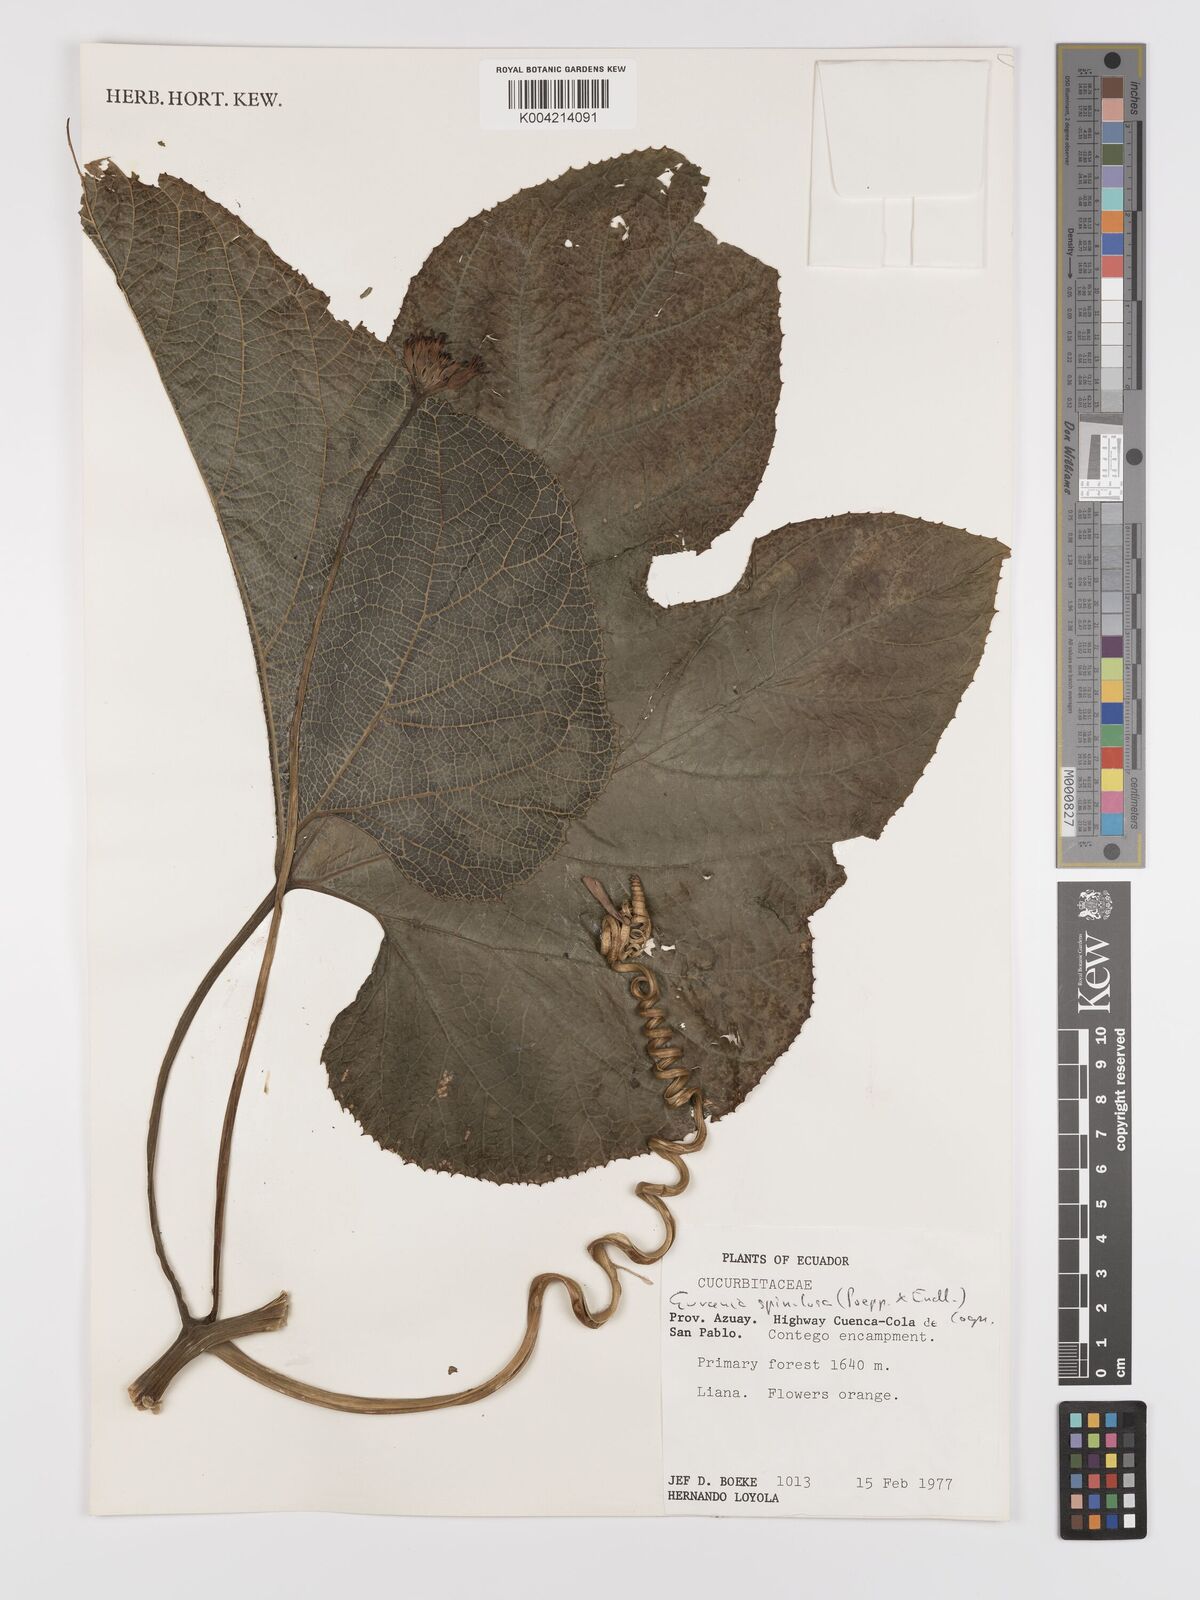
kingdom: Plantae
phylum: Tracheophyta
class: Magnoliopsida
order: Cucurbitales
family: Cucurbitaceae
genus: Gurania
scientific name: Gurania lobata
